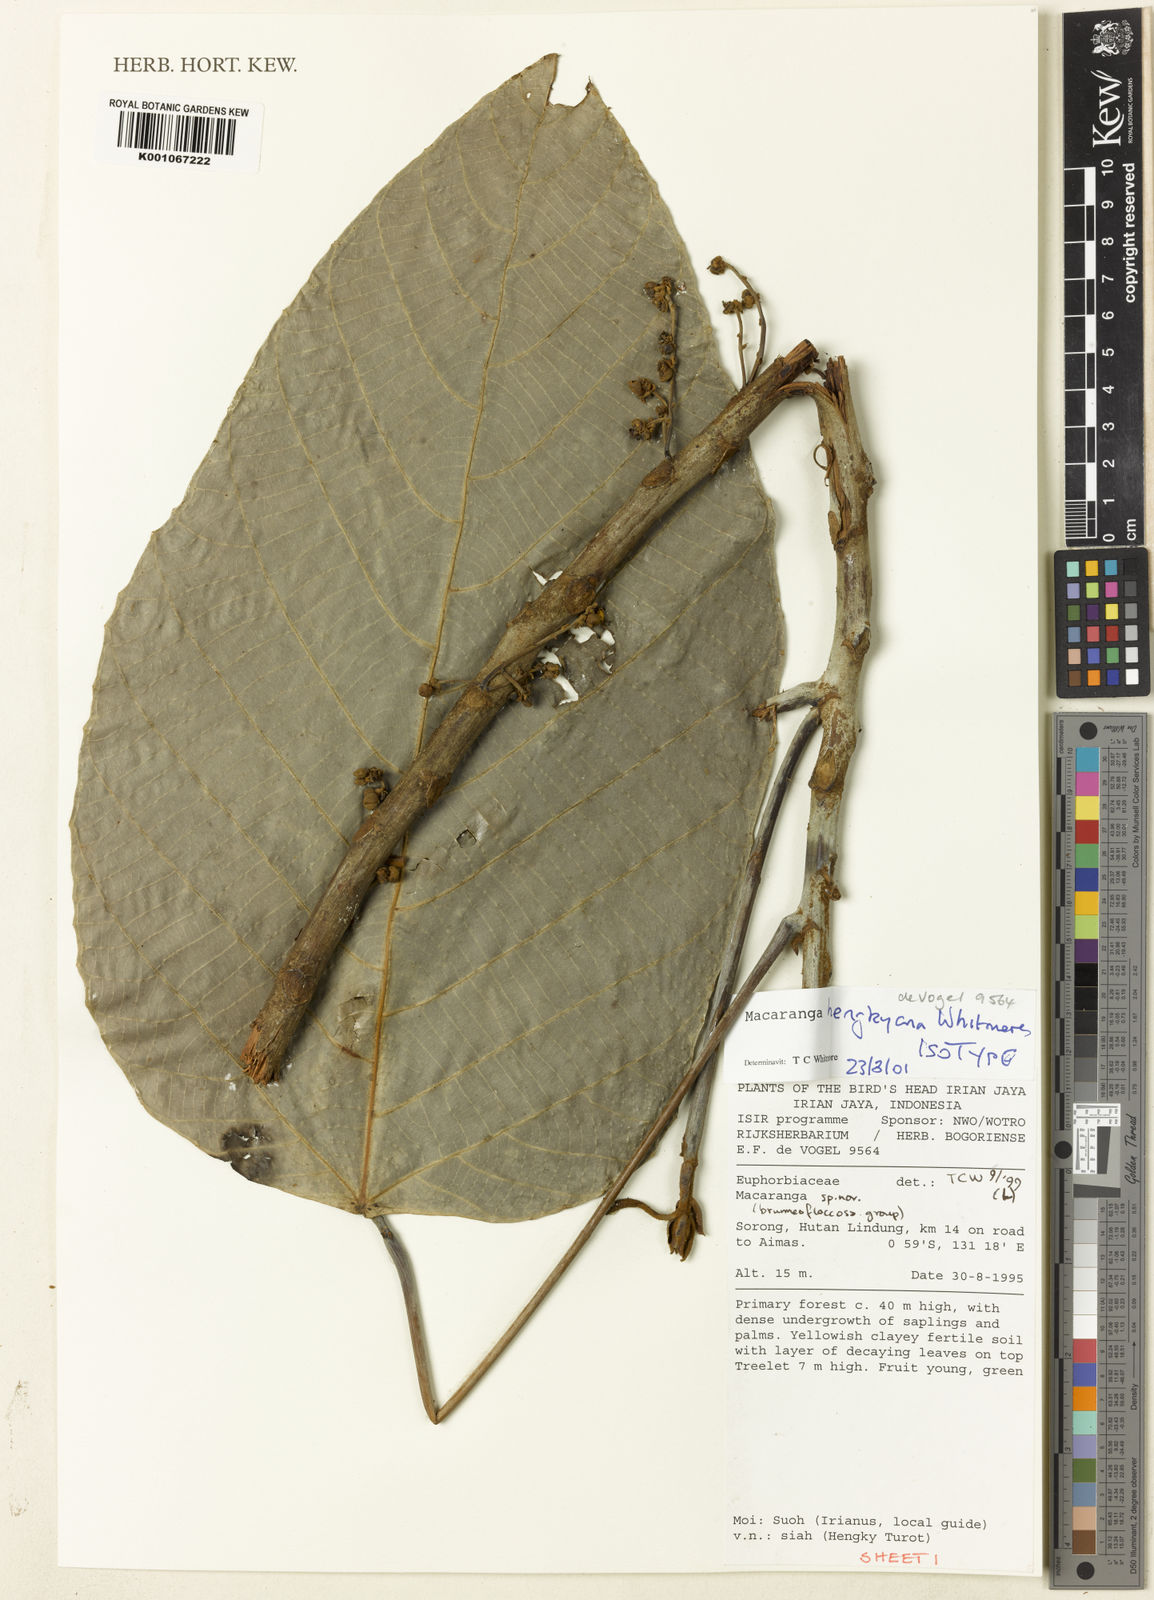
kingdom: Plantae
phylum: Tracheophyta
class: Magnoliopsida
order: Malpighiales
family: Euphorbiaceae
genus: Macaranga
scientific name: Macaranga hengkyana
